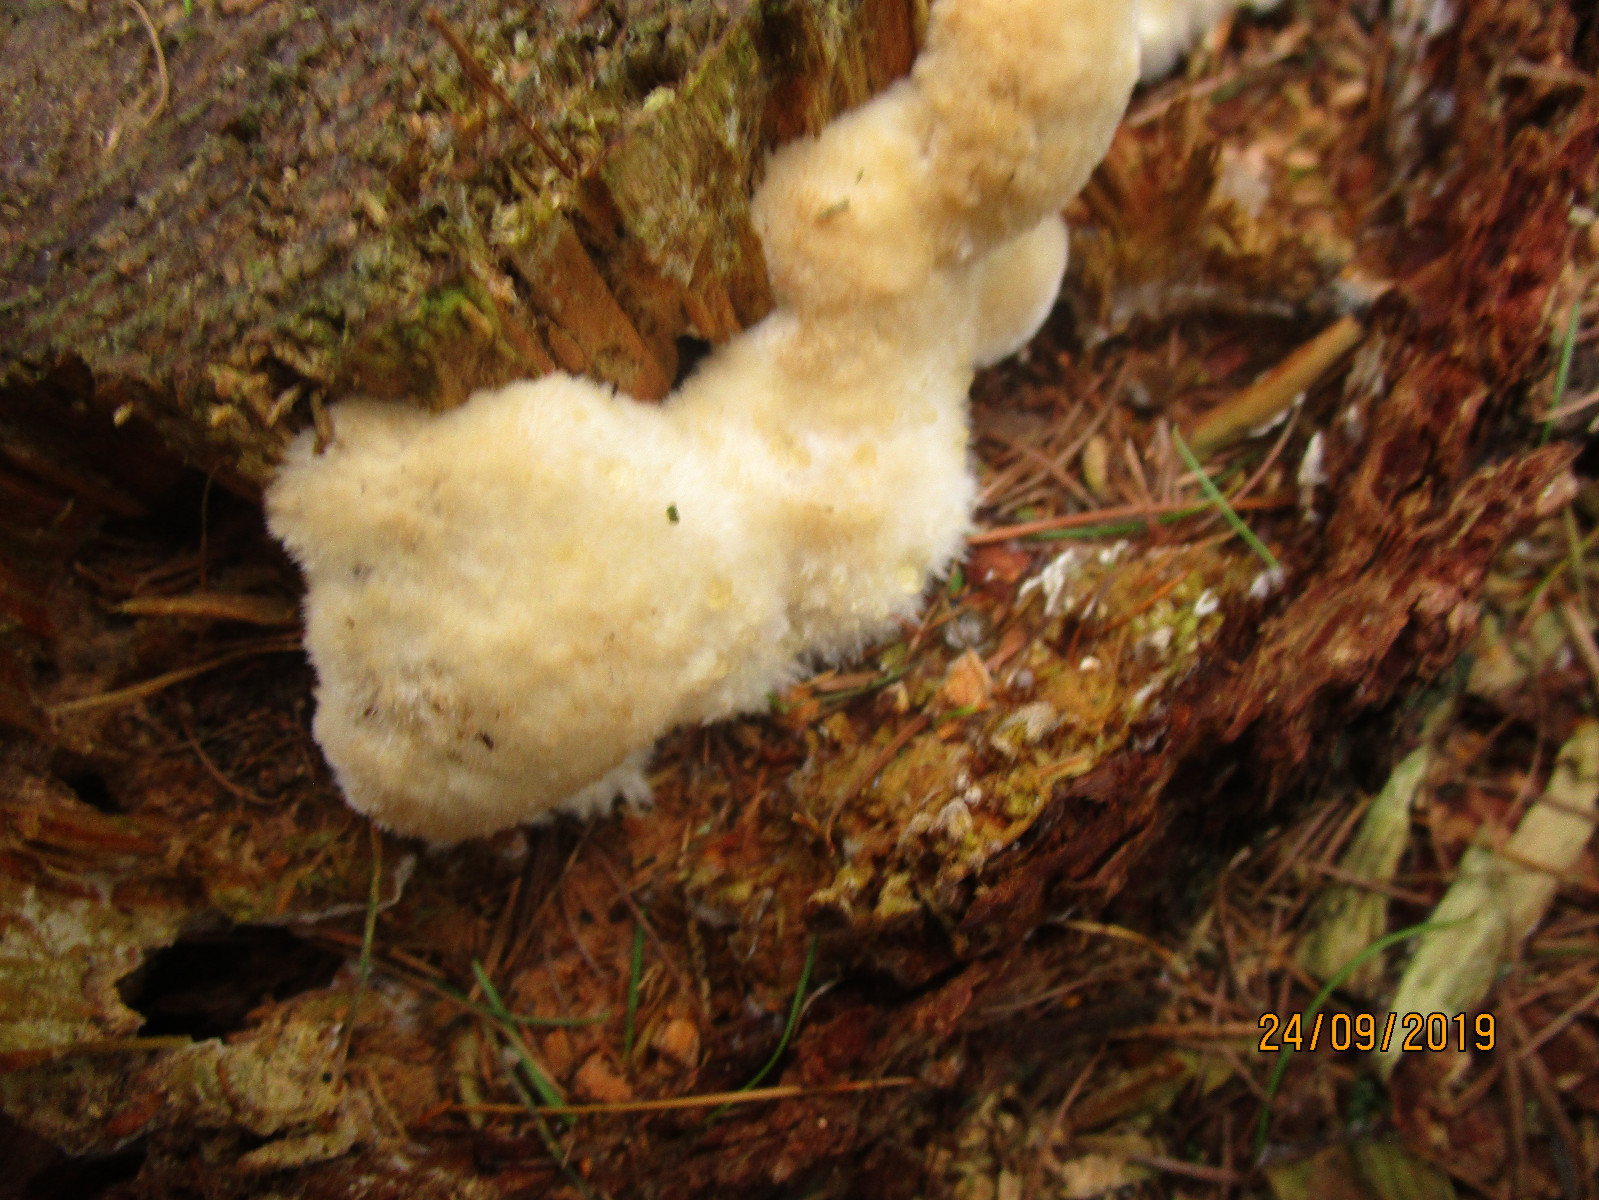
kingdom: Fungi
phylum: Basidiomycota
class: Agaricomycetes
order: Polyporales
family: Dacryobolaceae
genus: Postia
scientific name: Postia ptychogaster
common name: støvende kødporesvamp
